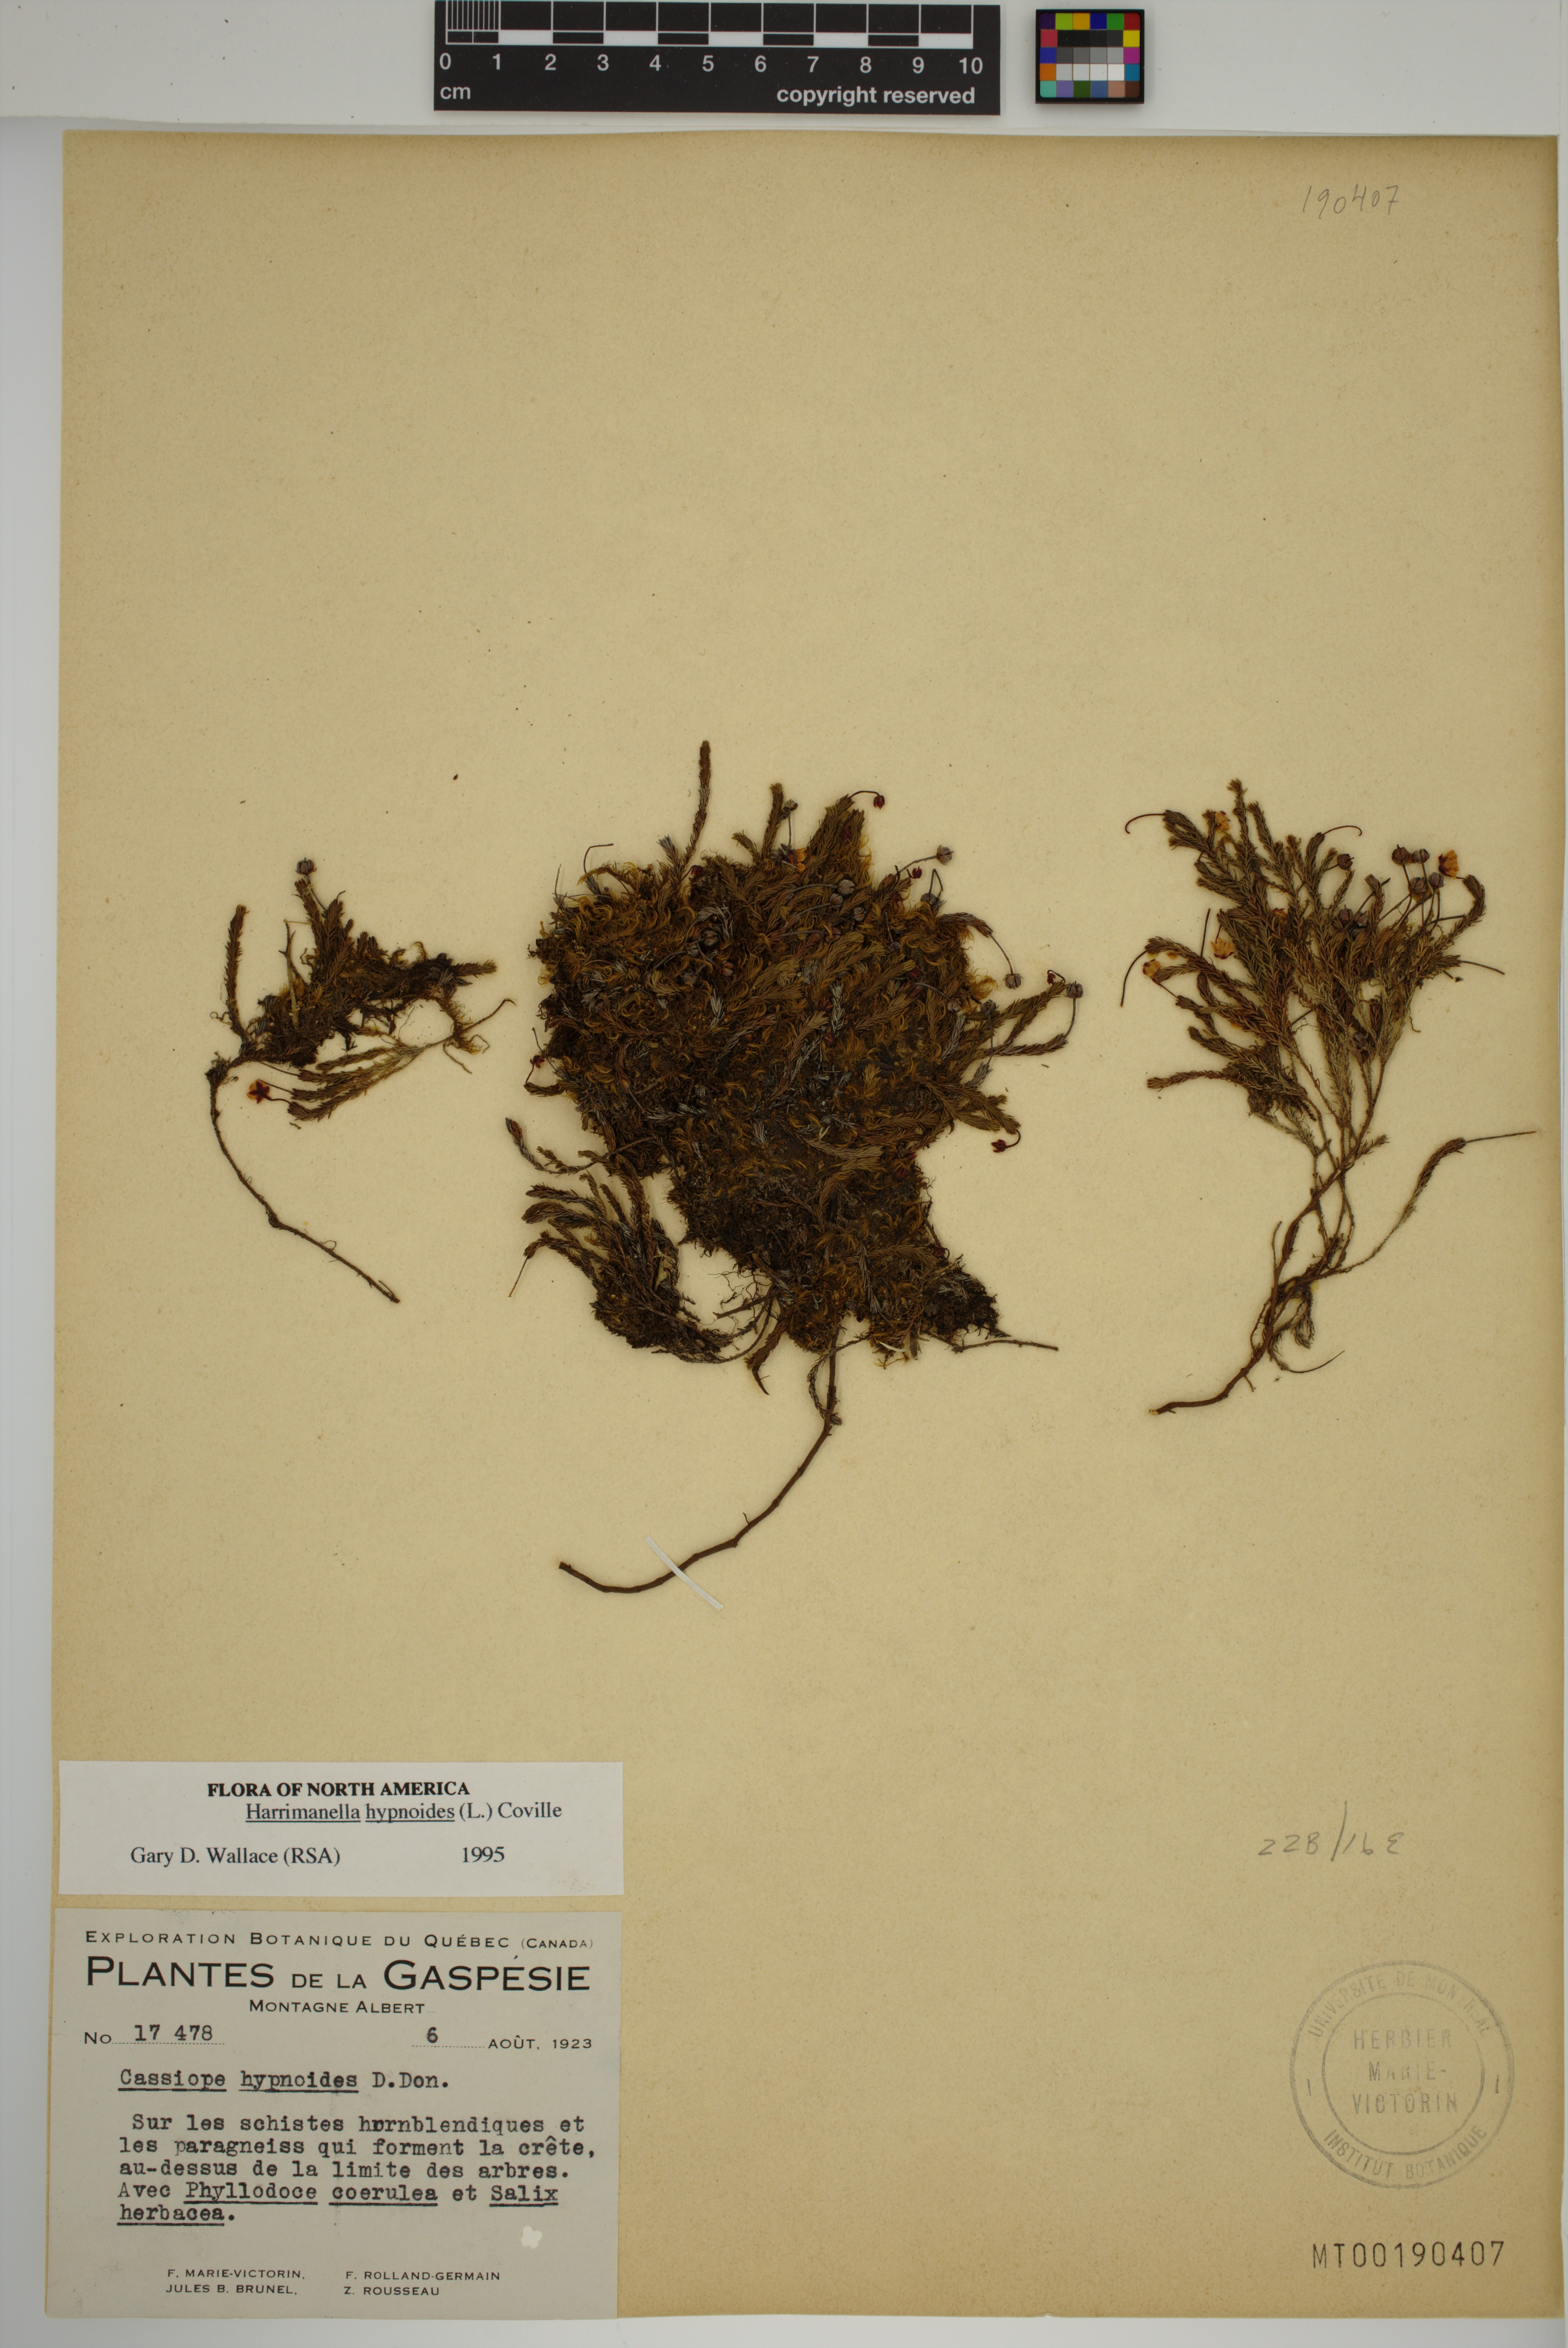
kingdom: Plantae
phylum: Tracheophyta
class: Magnoliopsida
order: Ericales
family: Ericaceae
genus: Harrimanella
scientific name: Harrimanella hypnoides
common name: Moss bell heather
